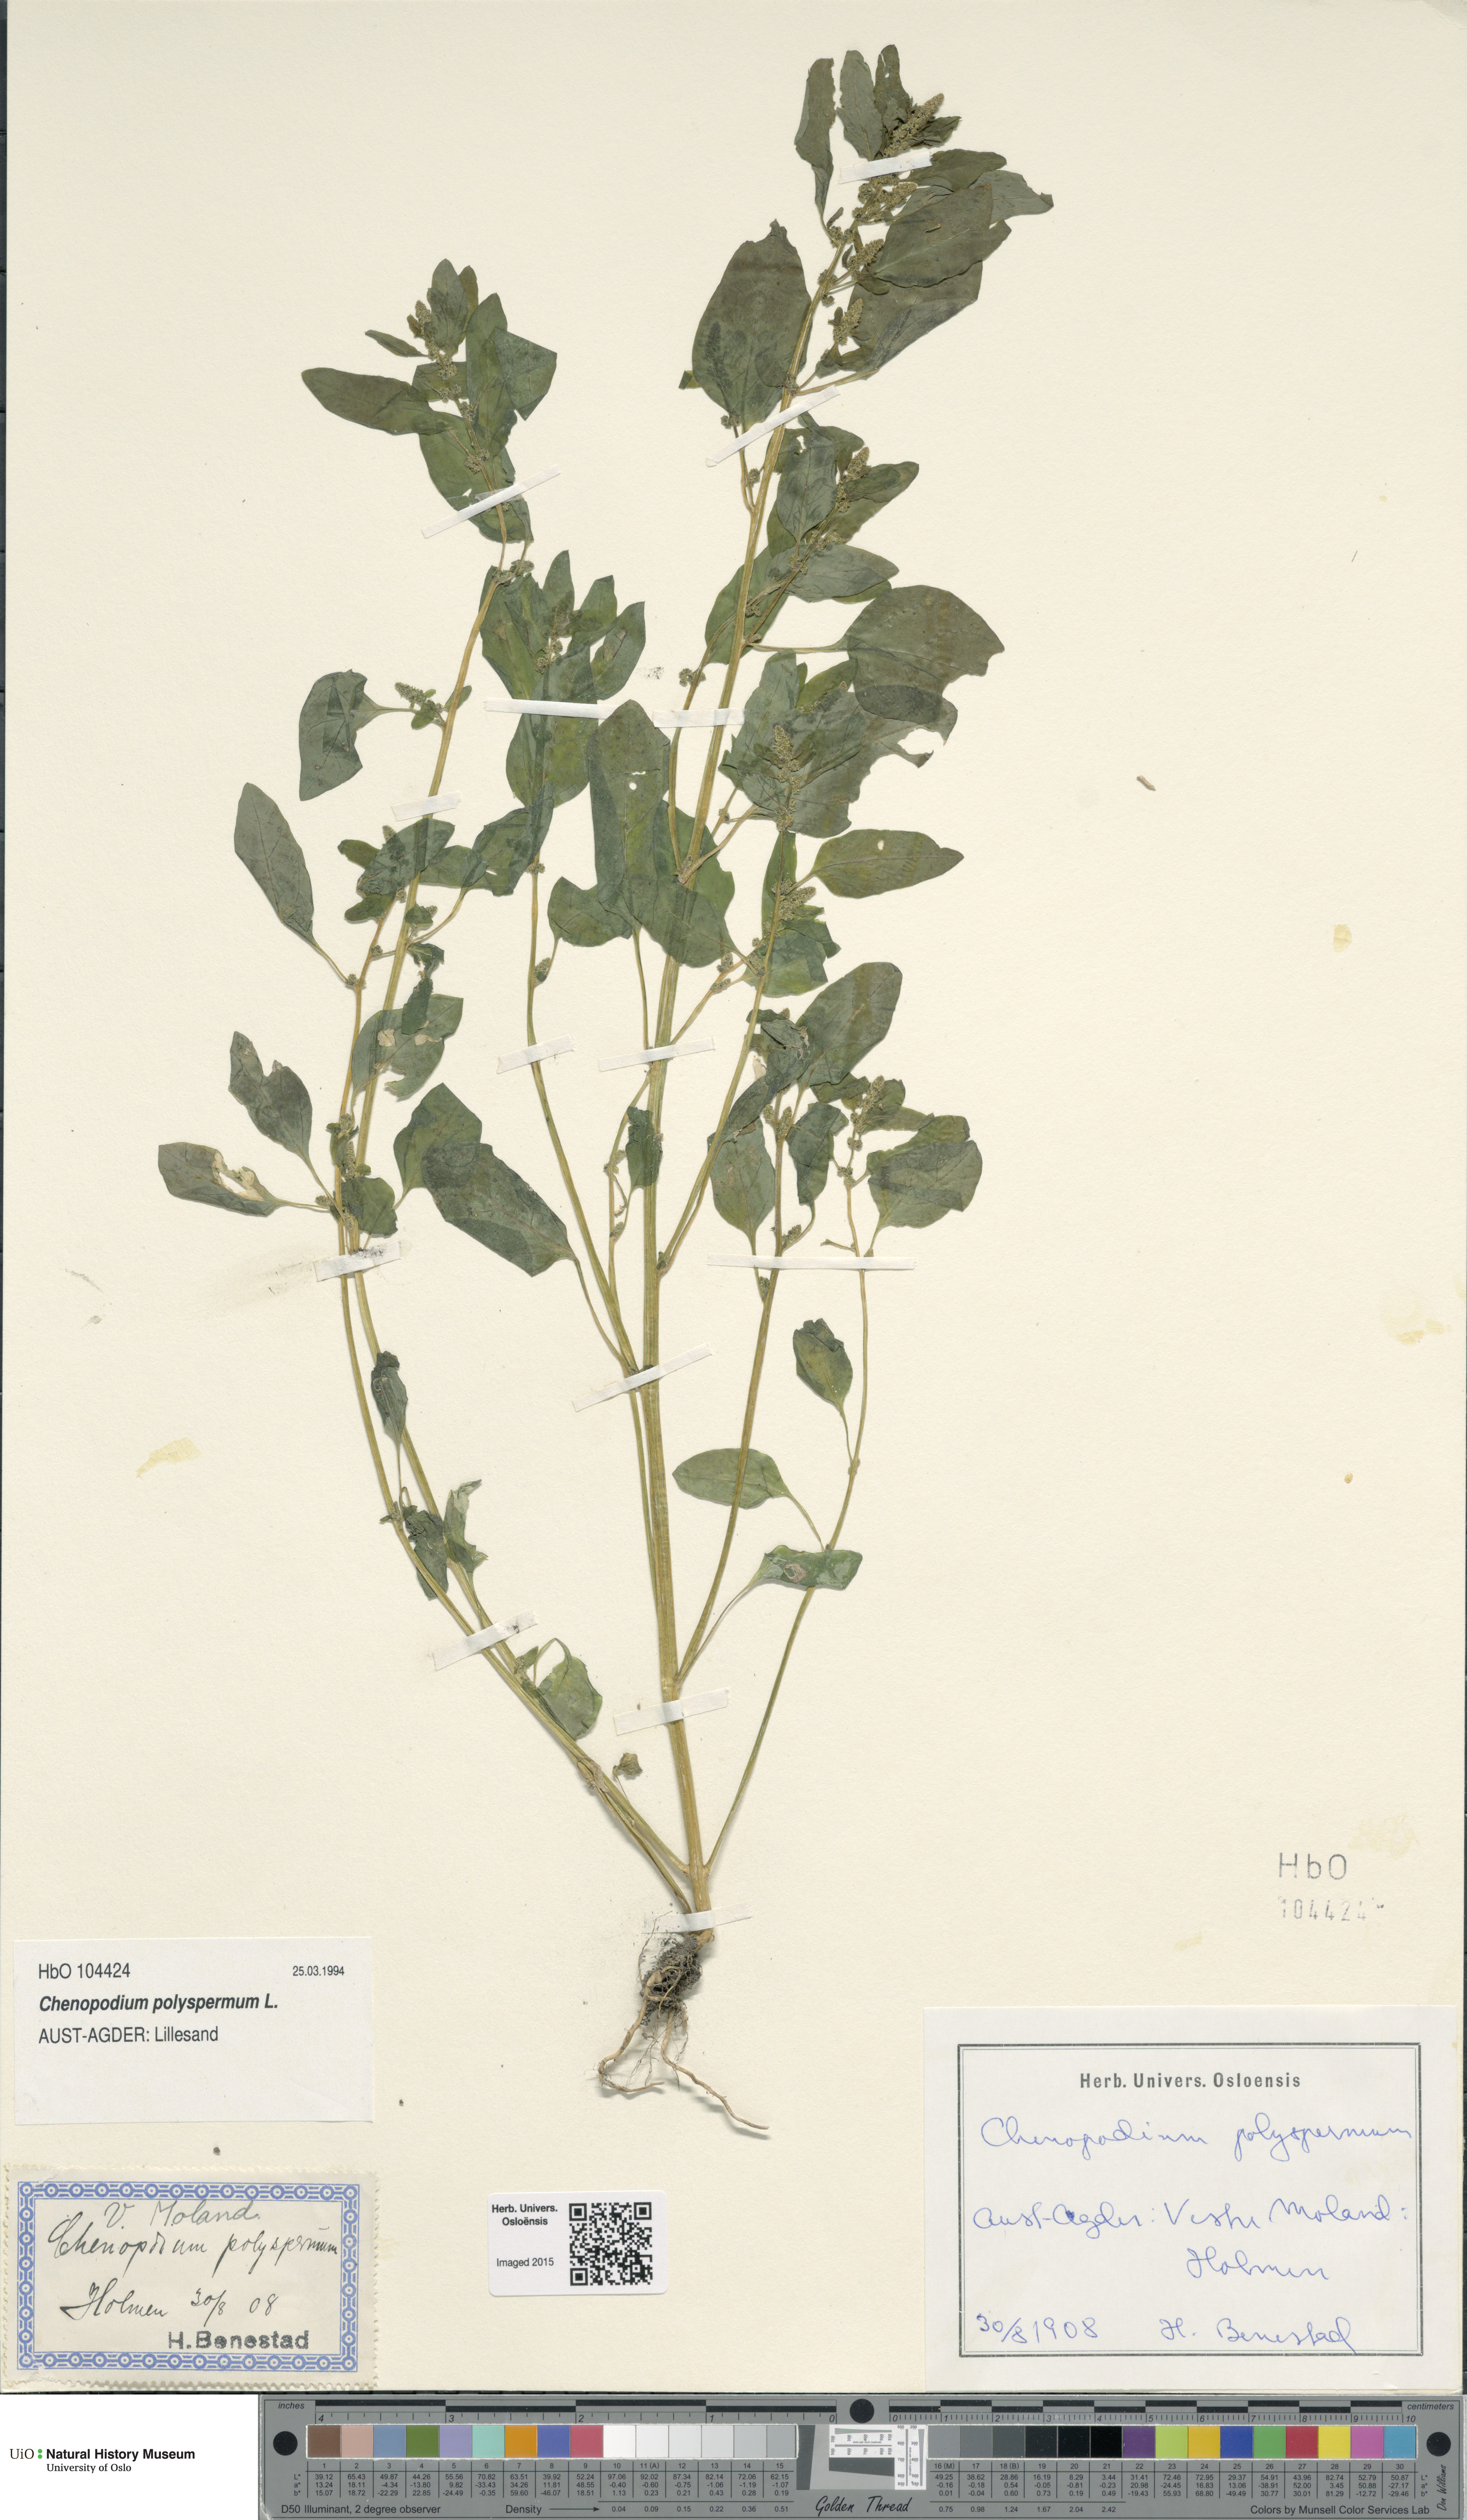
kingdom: Plantae
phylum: Tracheophyta
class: Magnoliopsida
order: Caryophyllales
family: Amaranthaceae
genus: Lipandra
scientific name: Lipandra polysperma
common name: Many-seed goosefoot
